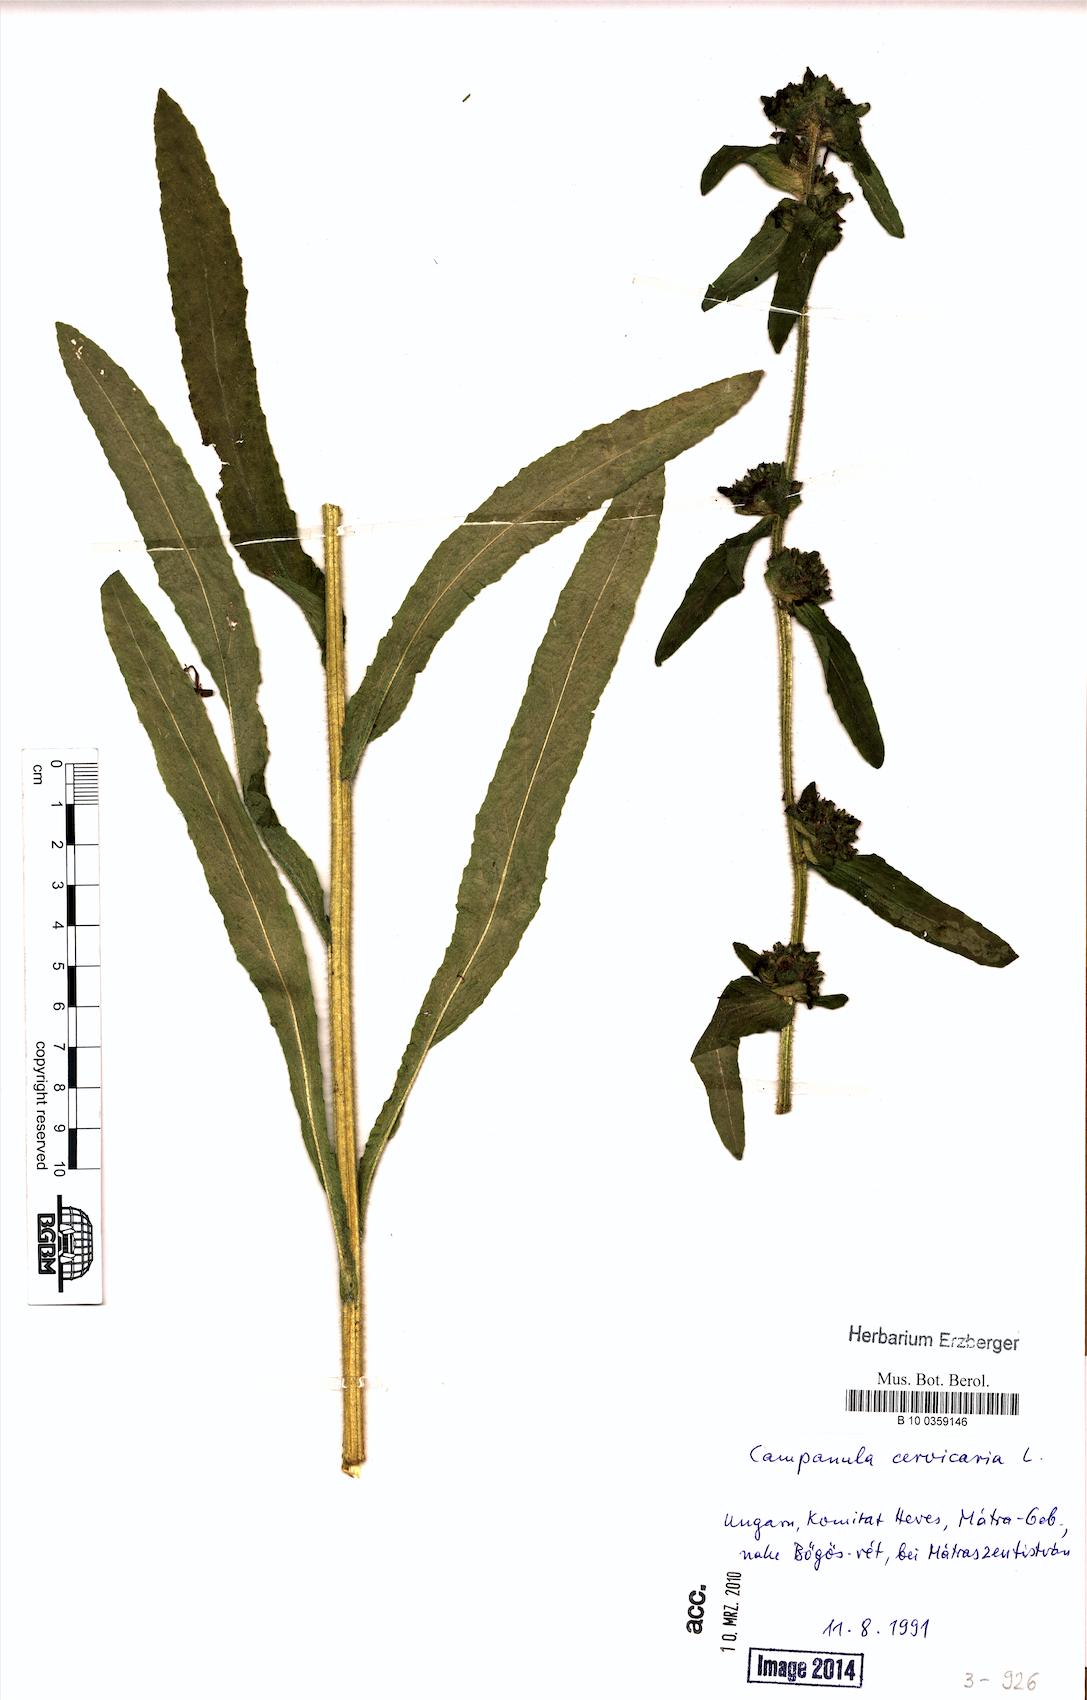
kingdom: Plantae
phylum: Tracheophyta
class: Magnoliopsida
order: Asterales
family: Campanulaceae
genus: Campanula
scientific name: Campanula cervicaria
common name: Bristly bellflower
